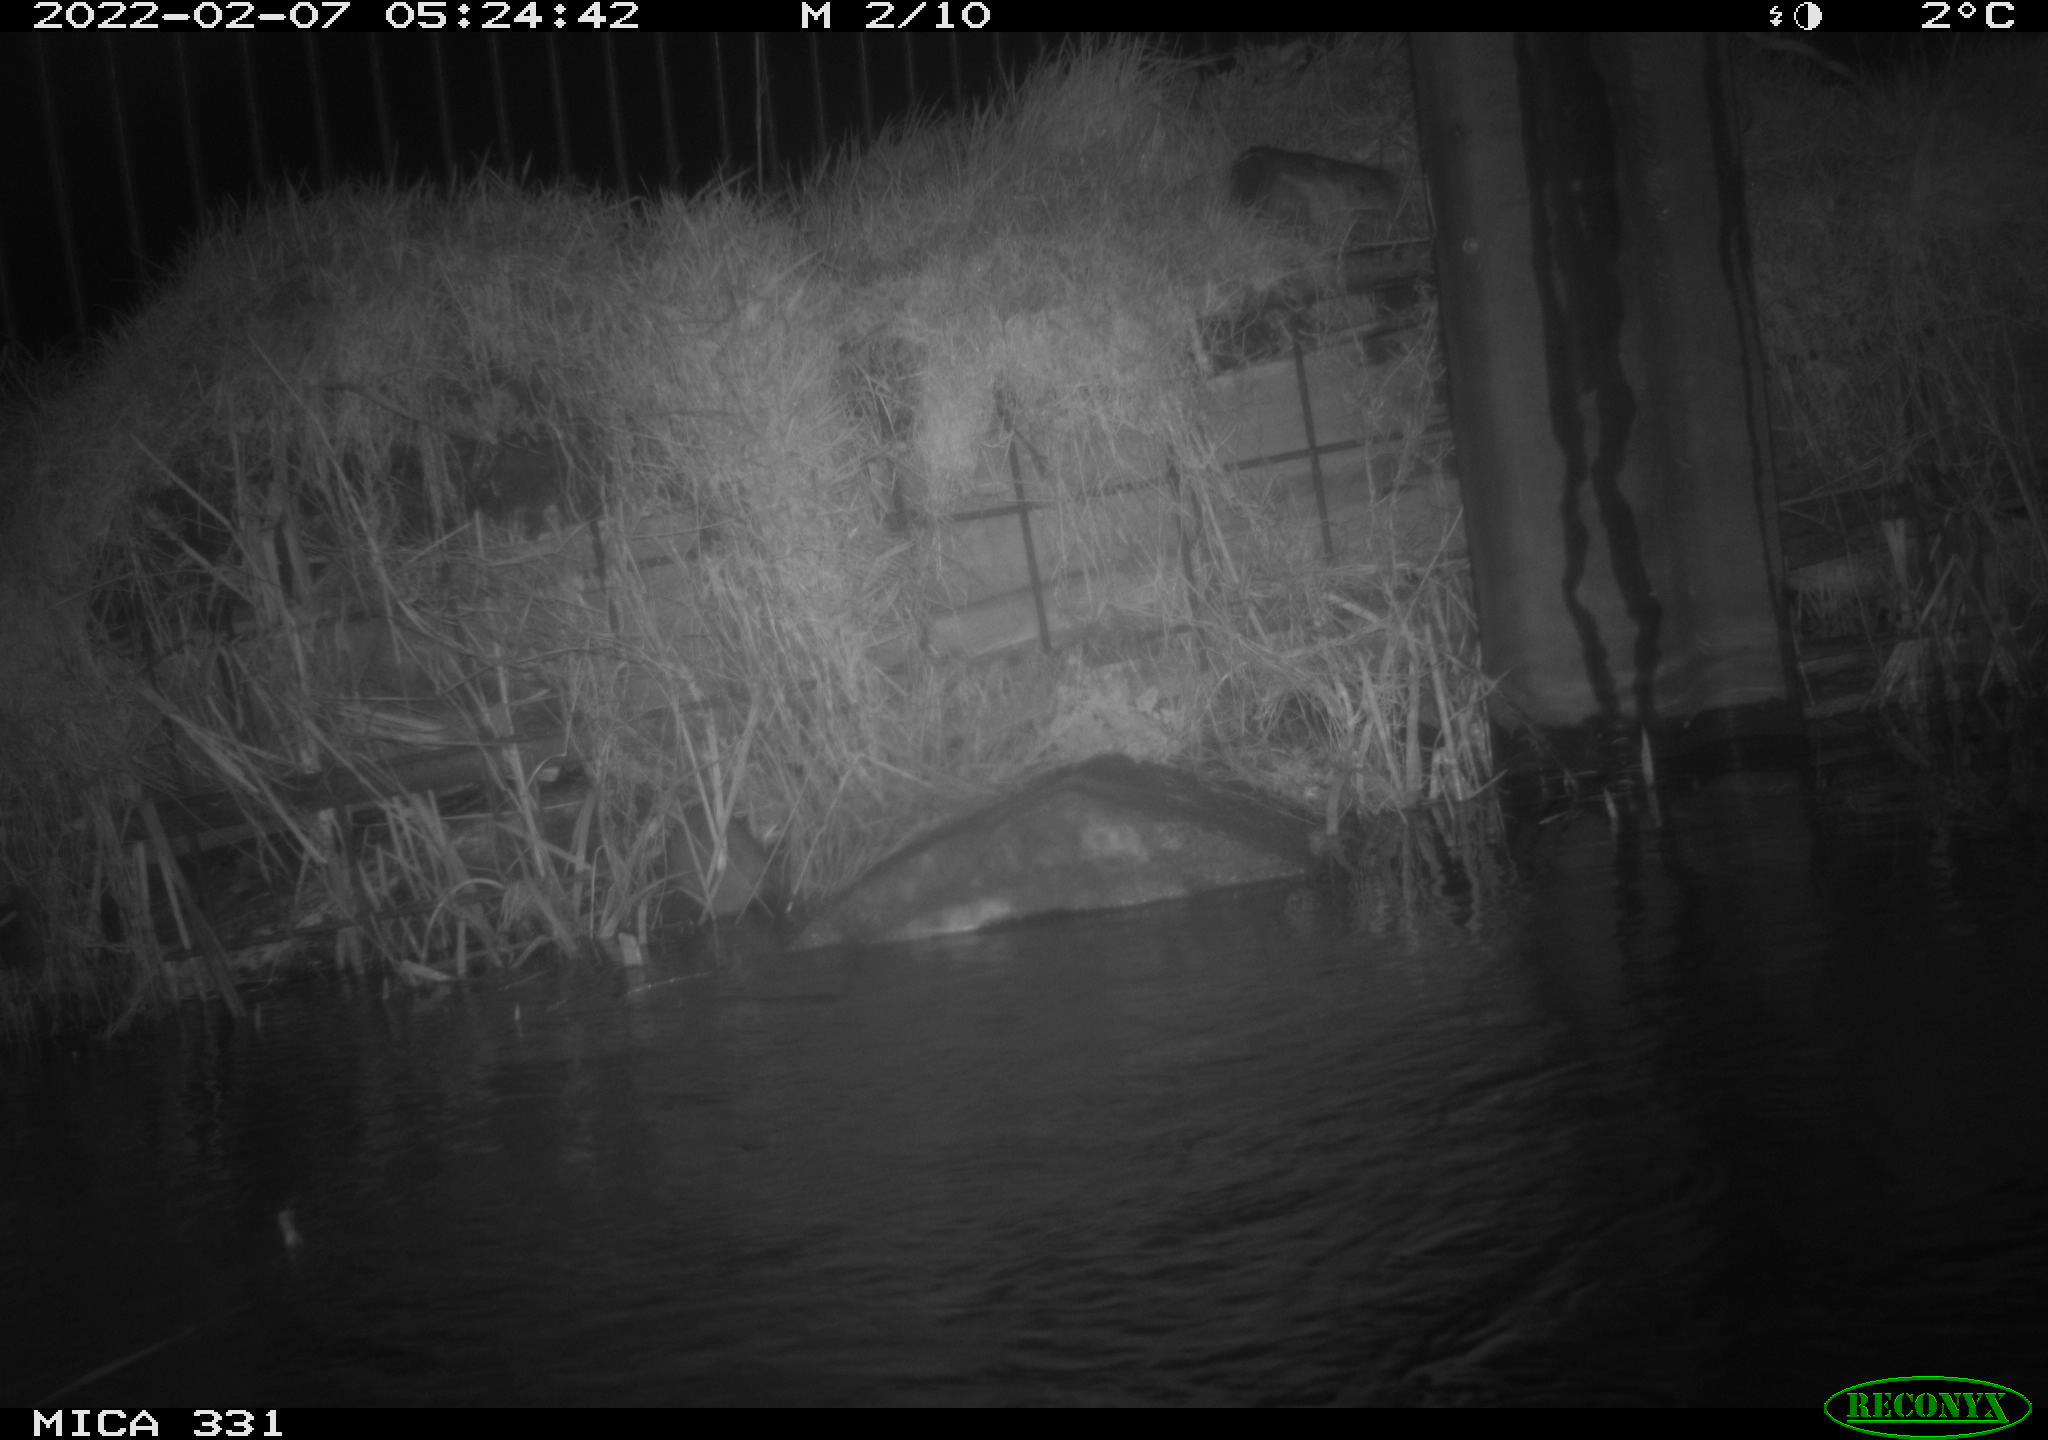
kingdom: Animalia
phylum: Chordata
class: Mammalia
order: Rodentia
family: Muridae
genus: Rattus
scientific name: Rattus norvegicus
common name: Brown rat
